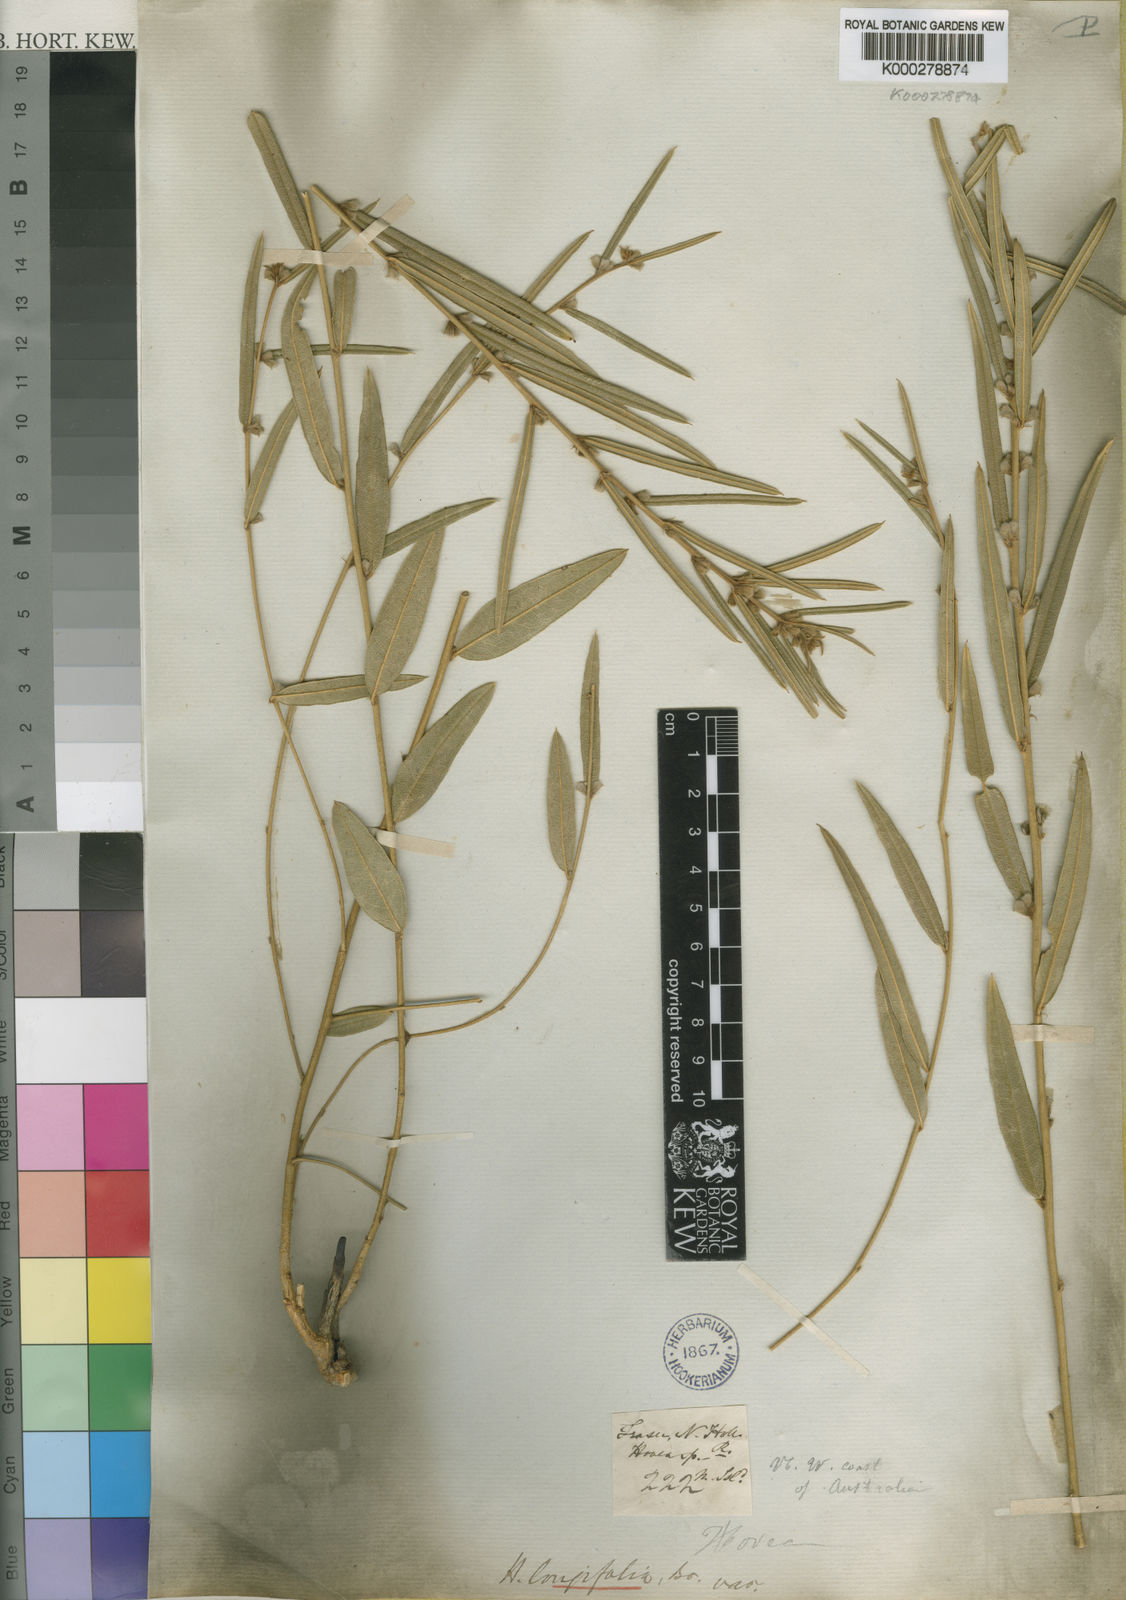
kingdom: Plantae
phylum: Tracheophyta
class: Magnoliopsida
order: Fabales
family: Fabaceae
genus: Hovea
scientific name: Hovea longifolia
